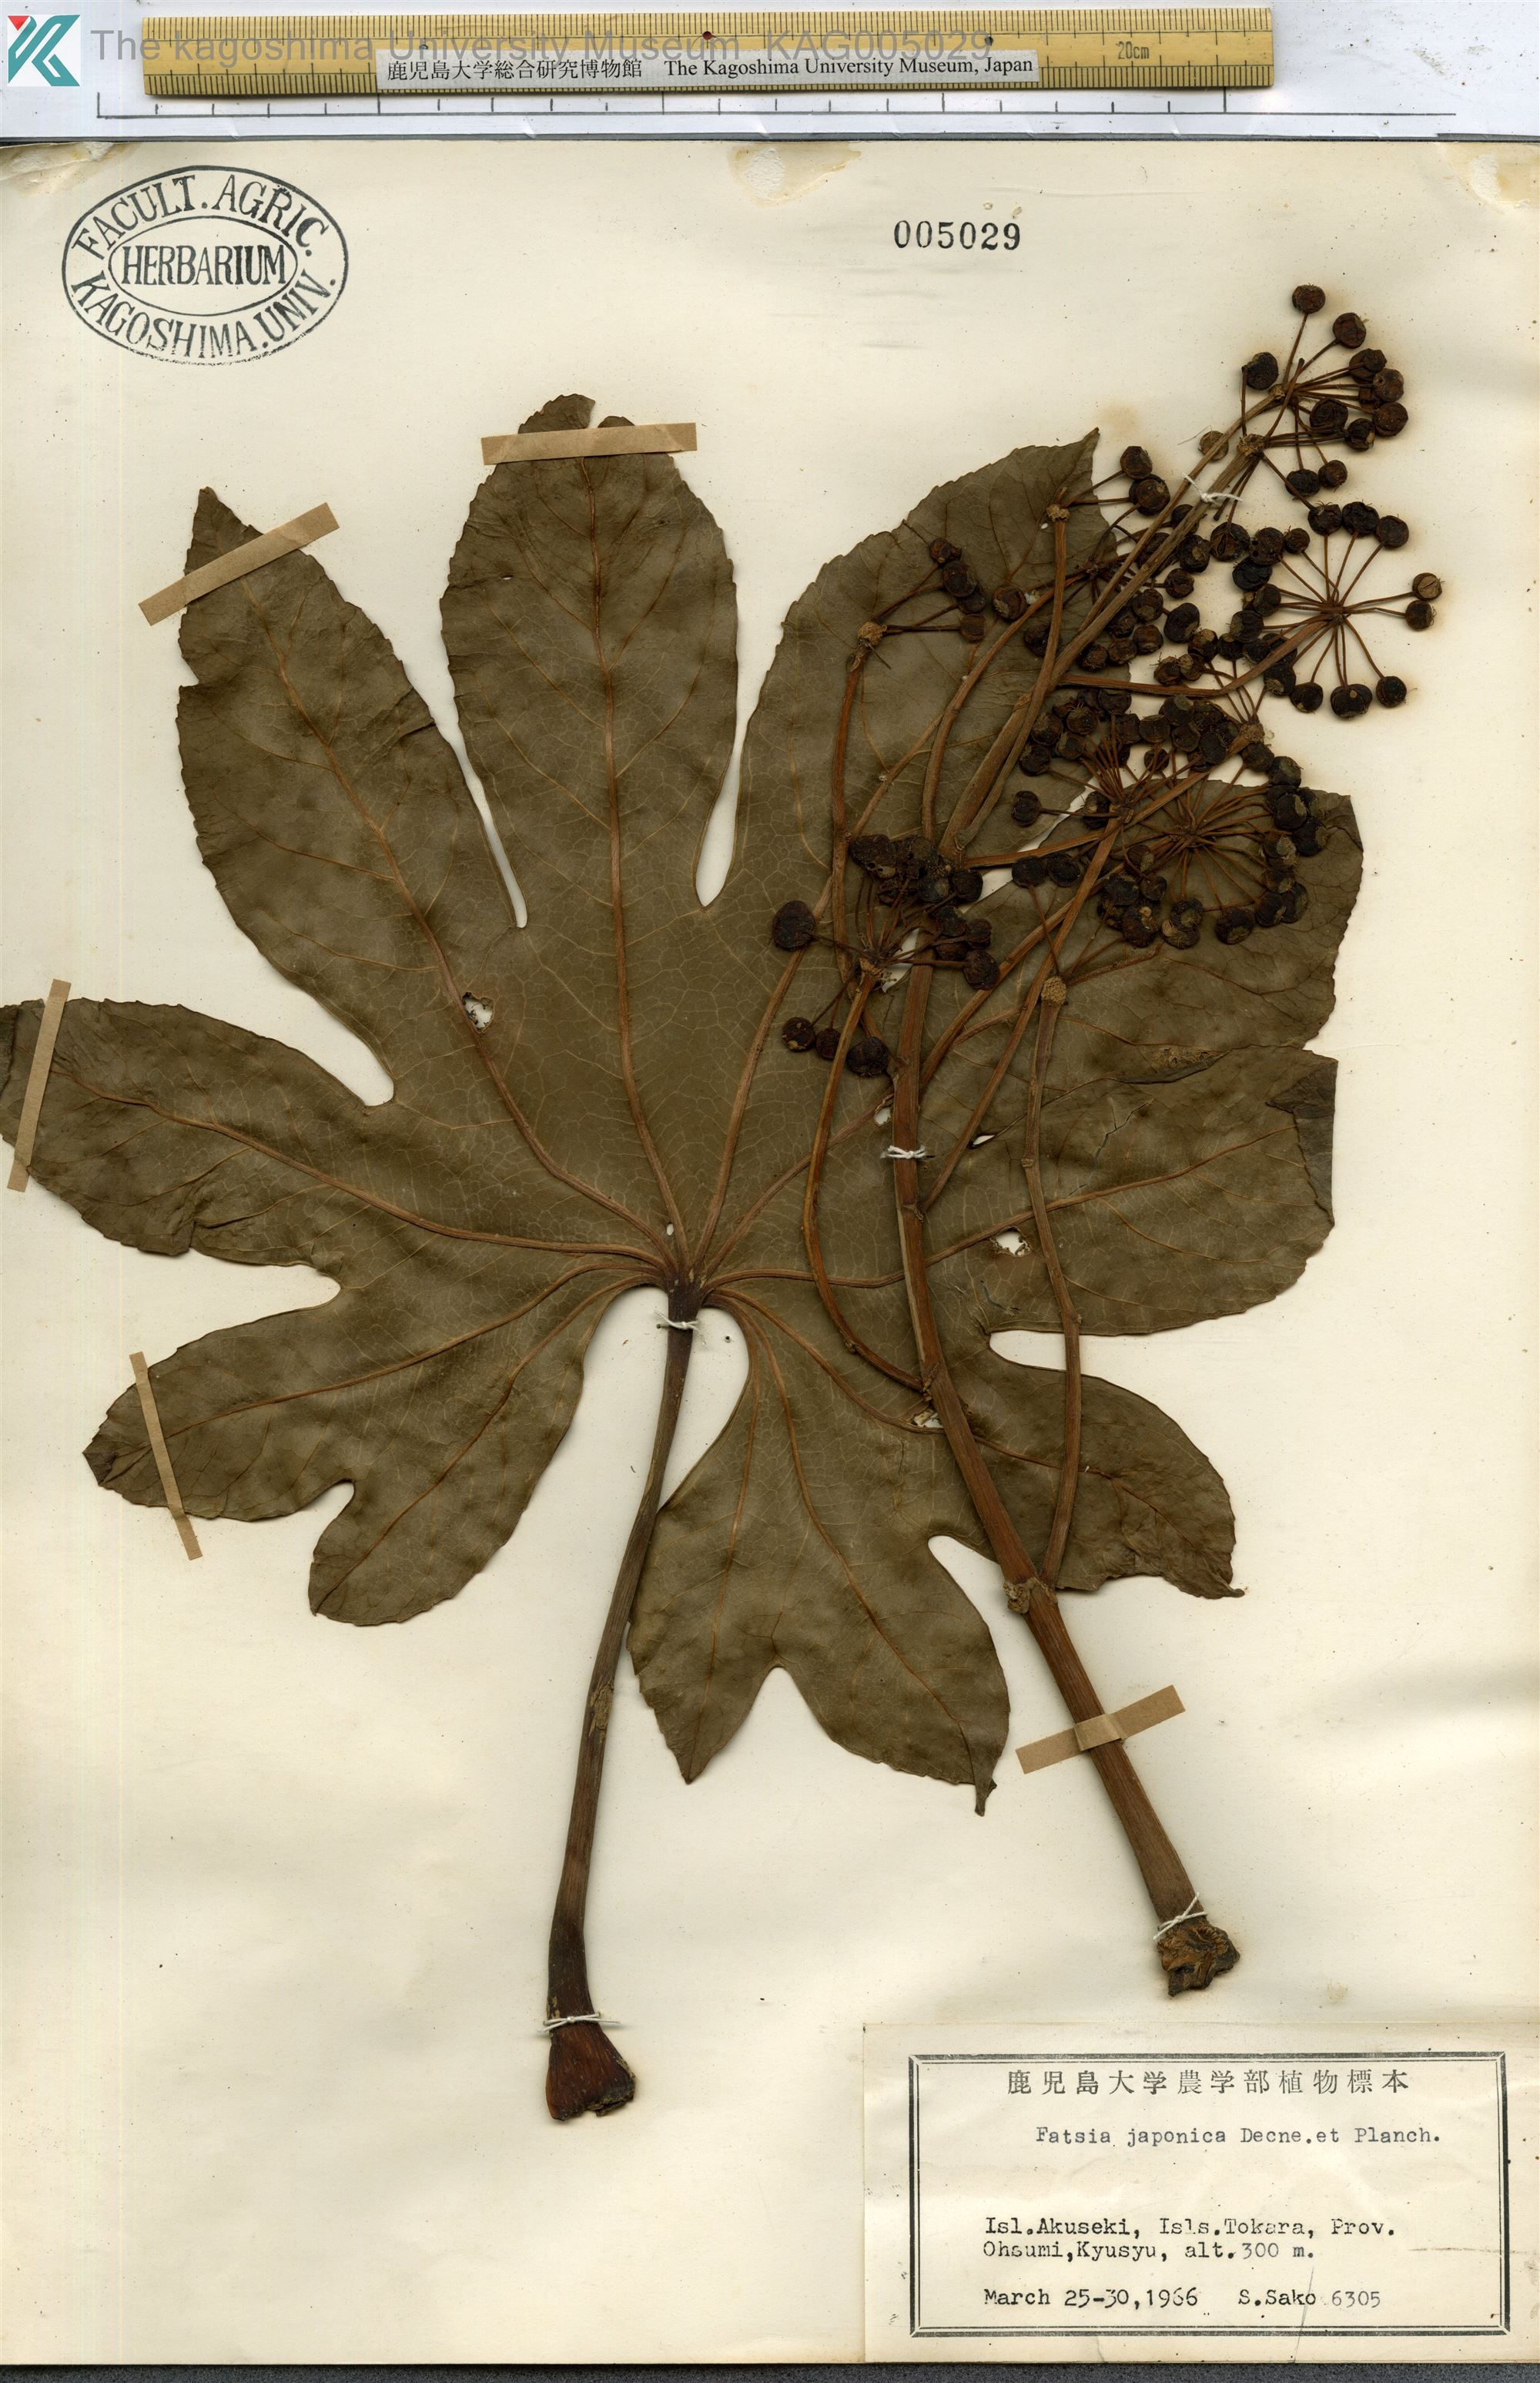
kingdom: Plantae
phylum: Tracheophyta
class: Magnoliopsida
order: Apiales
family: Araliaceae
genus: Fatsia
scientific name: Fatsia japonica
